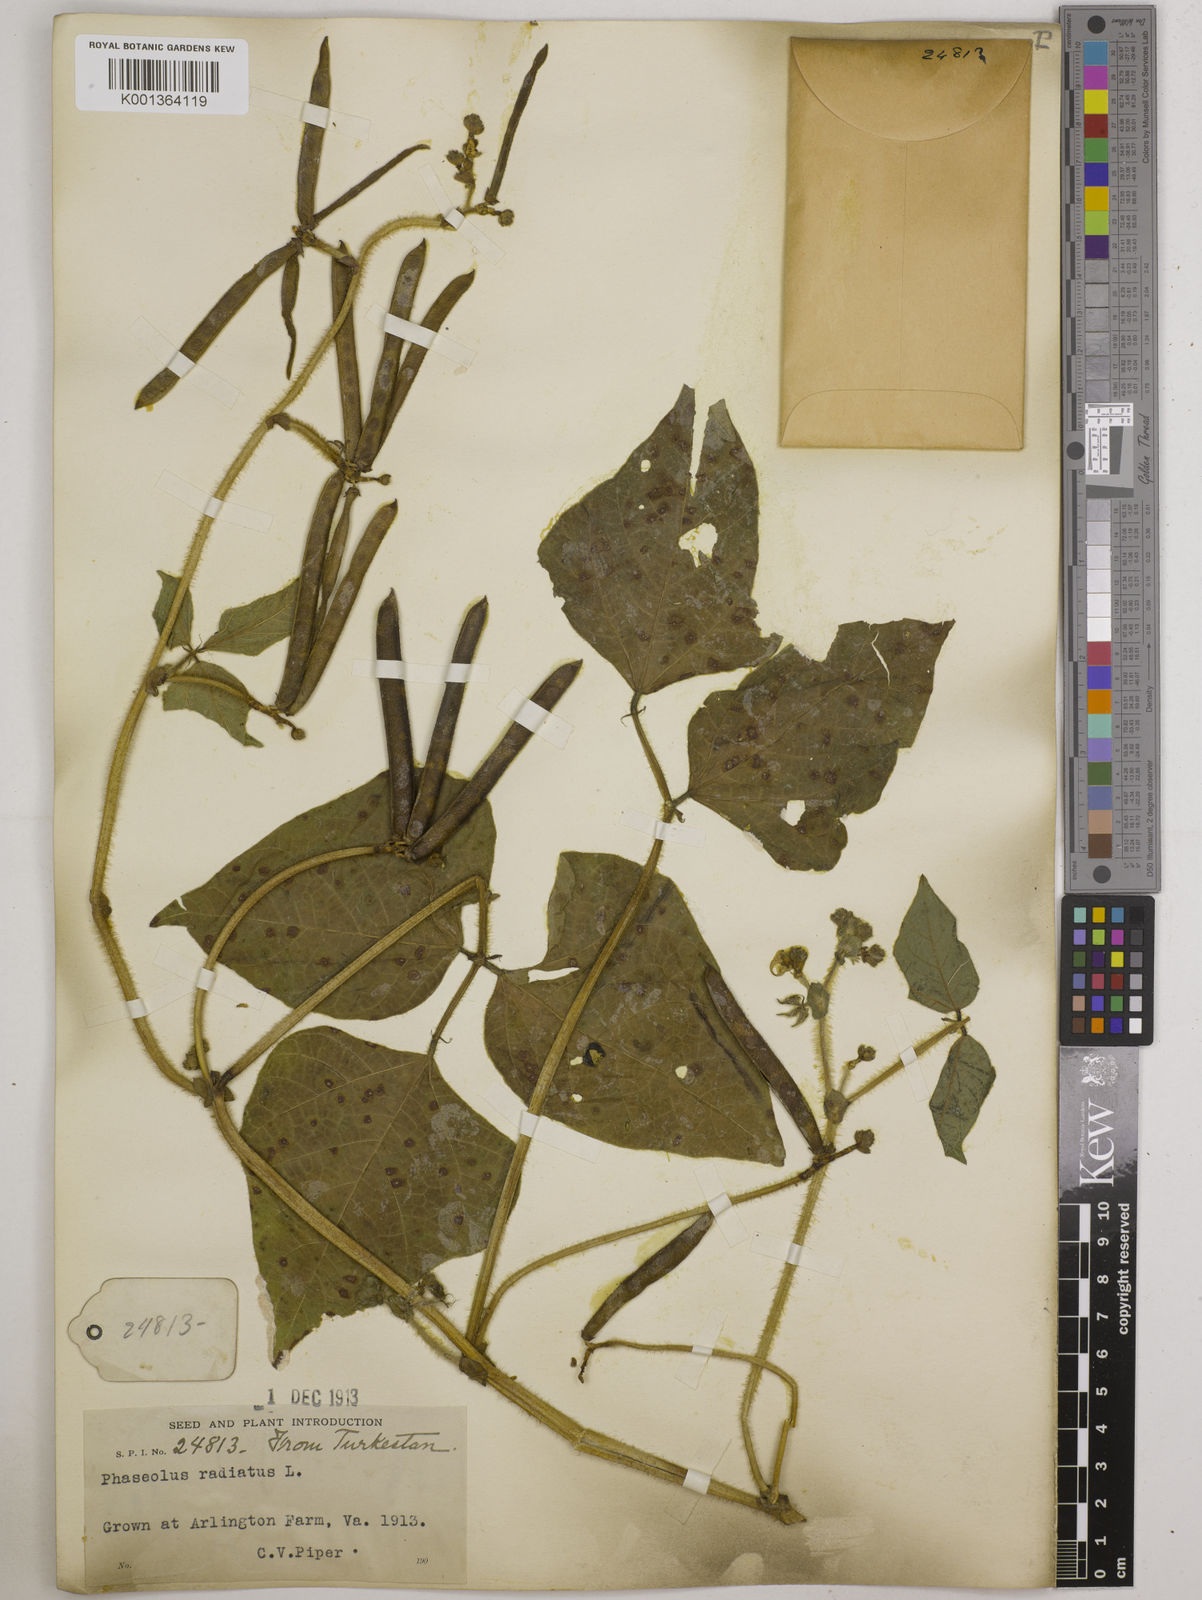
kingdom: Plantae
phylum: Tracheophyta
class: Magnoliopsida
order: Fabales
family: Fabaceae
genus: Vigna
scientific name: Vigna radiata
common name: Mung-bean
